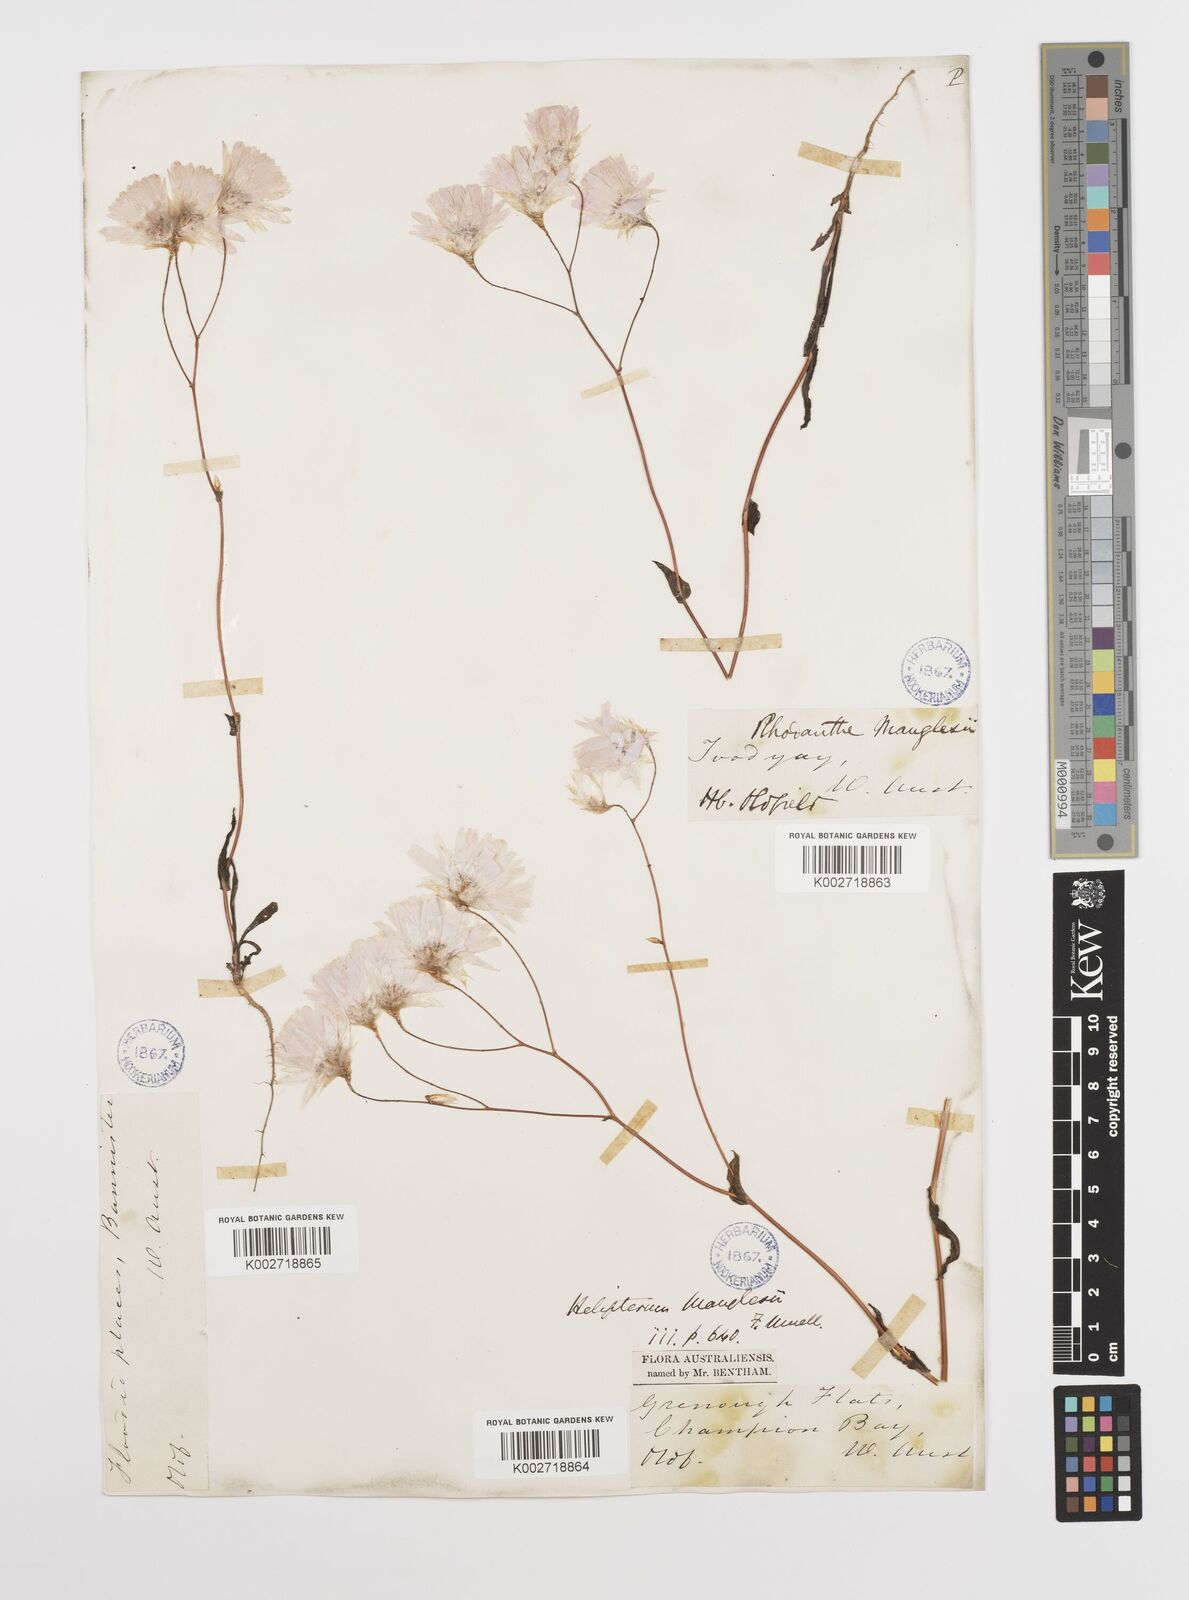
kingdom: Plantae
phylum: Tracheophyta
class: Magnoliopsida
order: Asterales
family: Asteraceae
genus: Rhodanthe
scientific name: Rhodanthe manglesii
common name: Pink sunray
